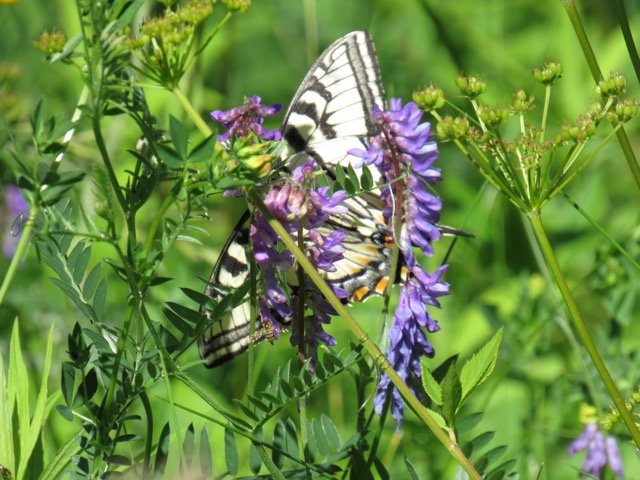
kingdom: Animalia
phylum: Arthropoda
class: Insecta
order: Lepidoptera
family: Papilionidae
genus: Pterourus
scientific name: Pterourus canadensis
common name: Canadian Tiger Swallowtail
